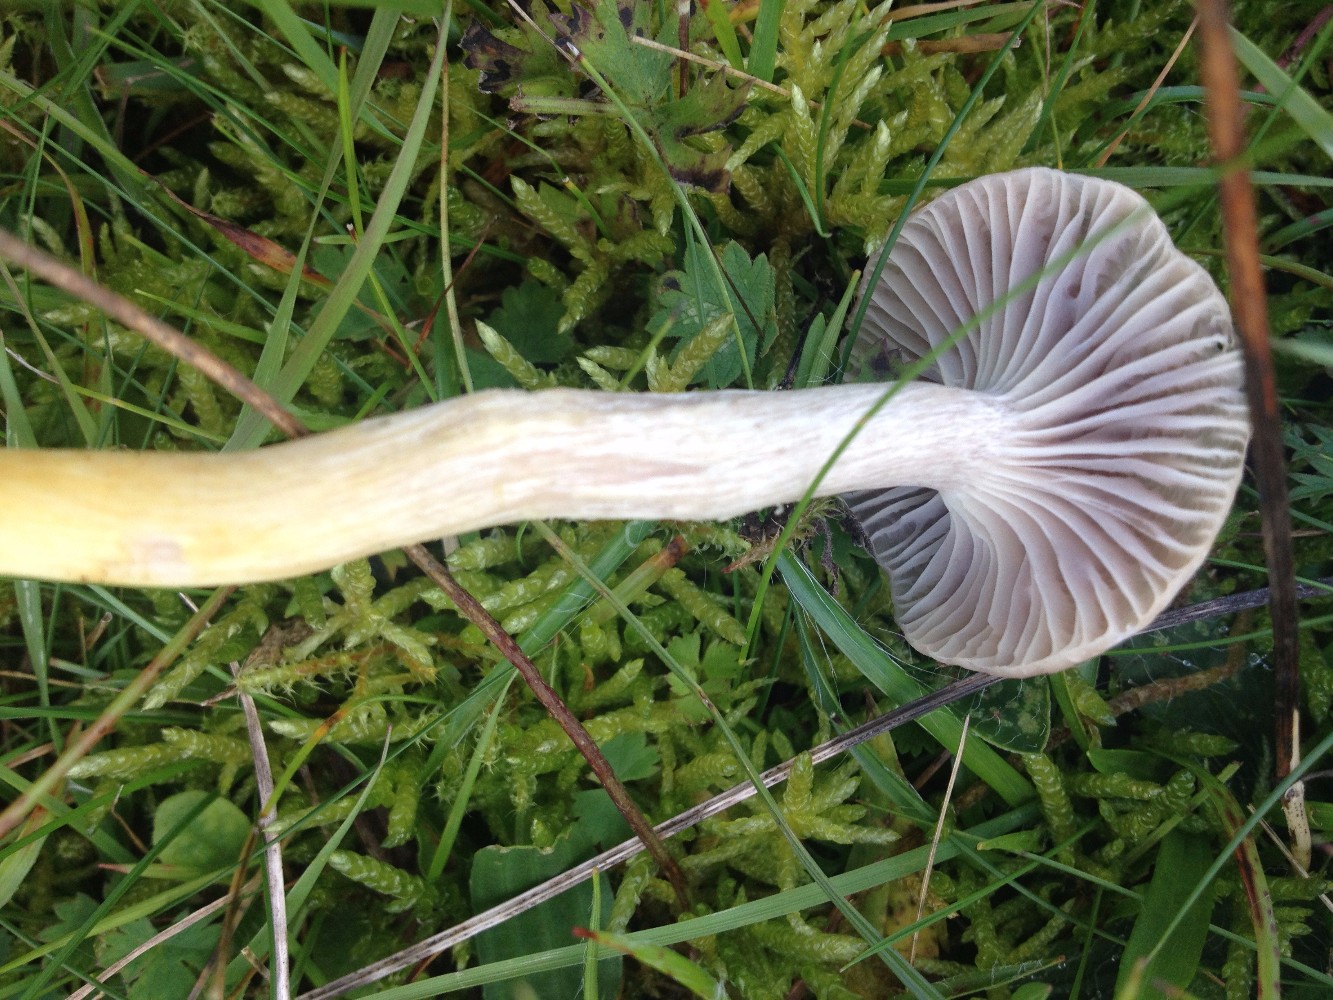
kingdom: Fungi
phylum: Basidiomycota
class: Agaricomycetes
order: Agaricales
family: Hygrophoraceae
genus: Cuphophyllus
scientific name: Cuphophyllus flavipes
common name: gulfodet vokshat
